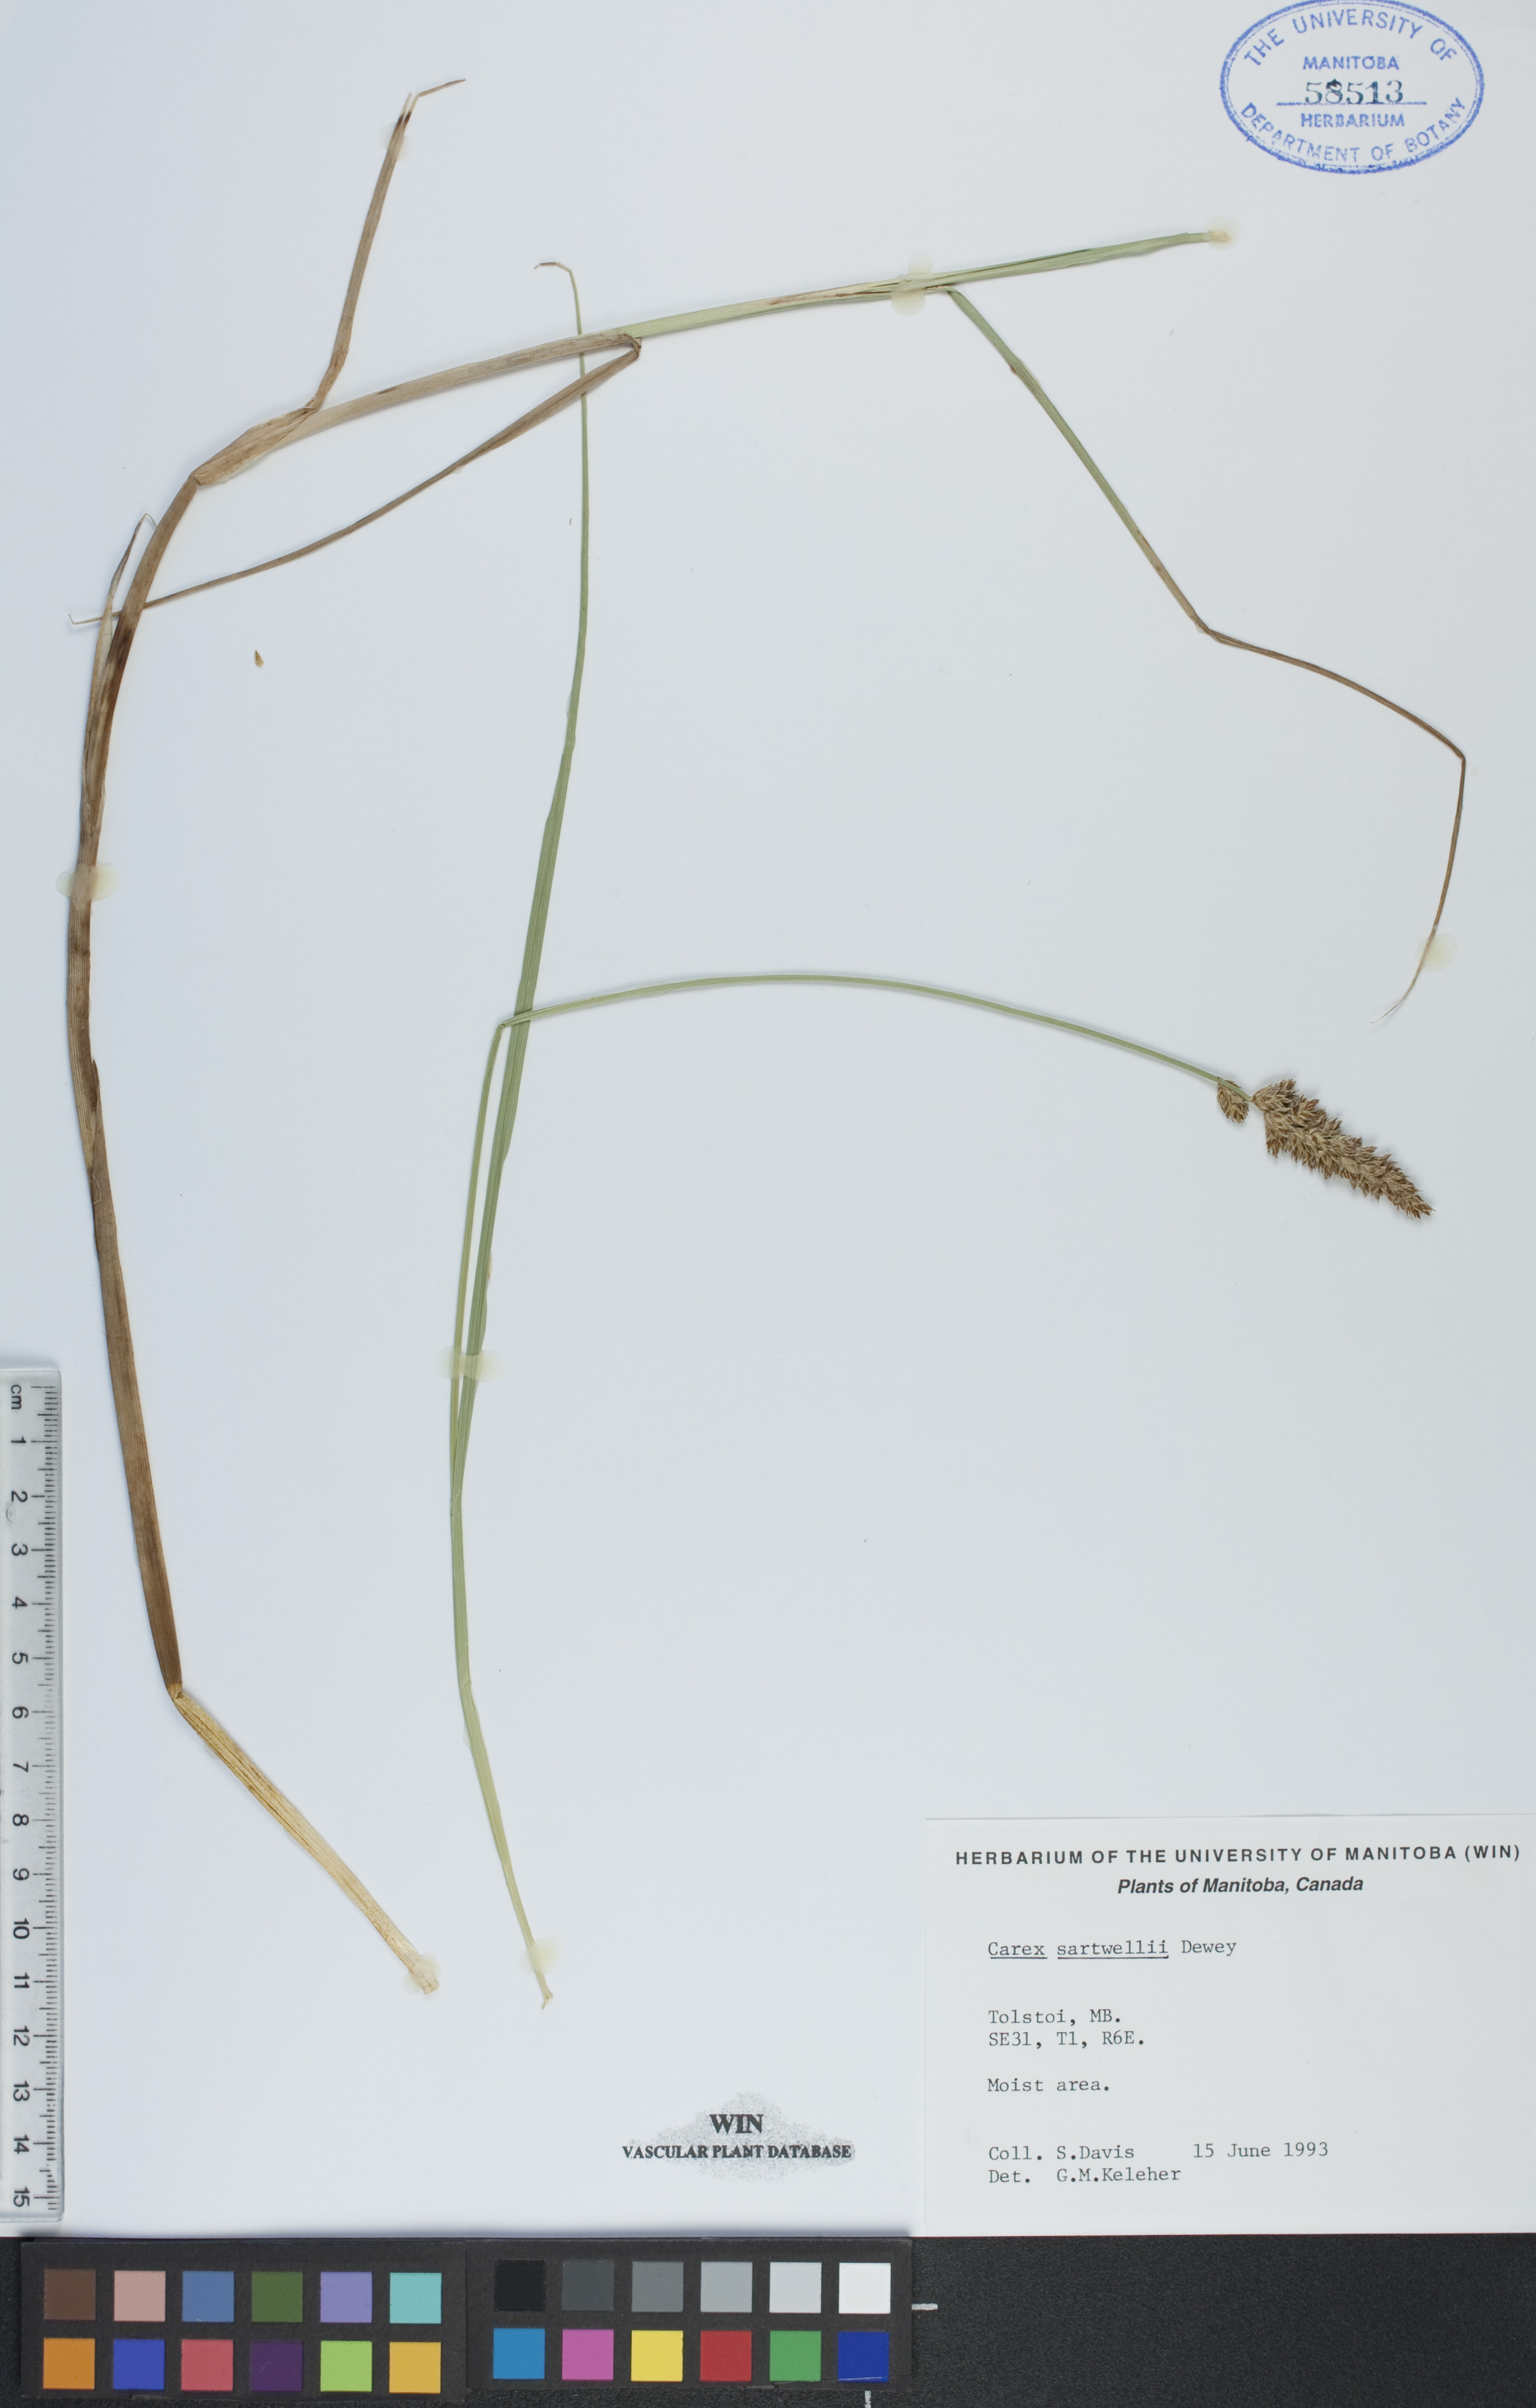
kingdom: Plantae
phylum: Tracheophyta
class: Liliopsida
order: Poales
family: Cyperaceae
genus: Carex
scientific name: Carex sartwellii
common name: Sartwell's sedge
